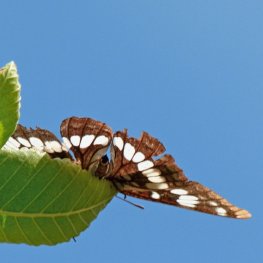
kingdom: Animalia
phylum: Arthropoda
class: Insecta
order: Lepidoptera
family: Nymphalidae
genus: Limenitis
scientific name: Limenitis lorquini
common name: Lorquin's Admiral
